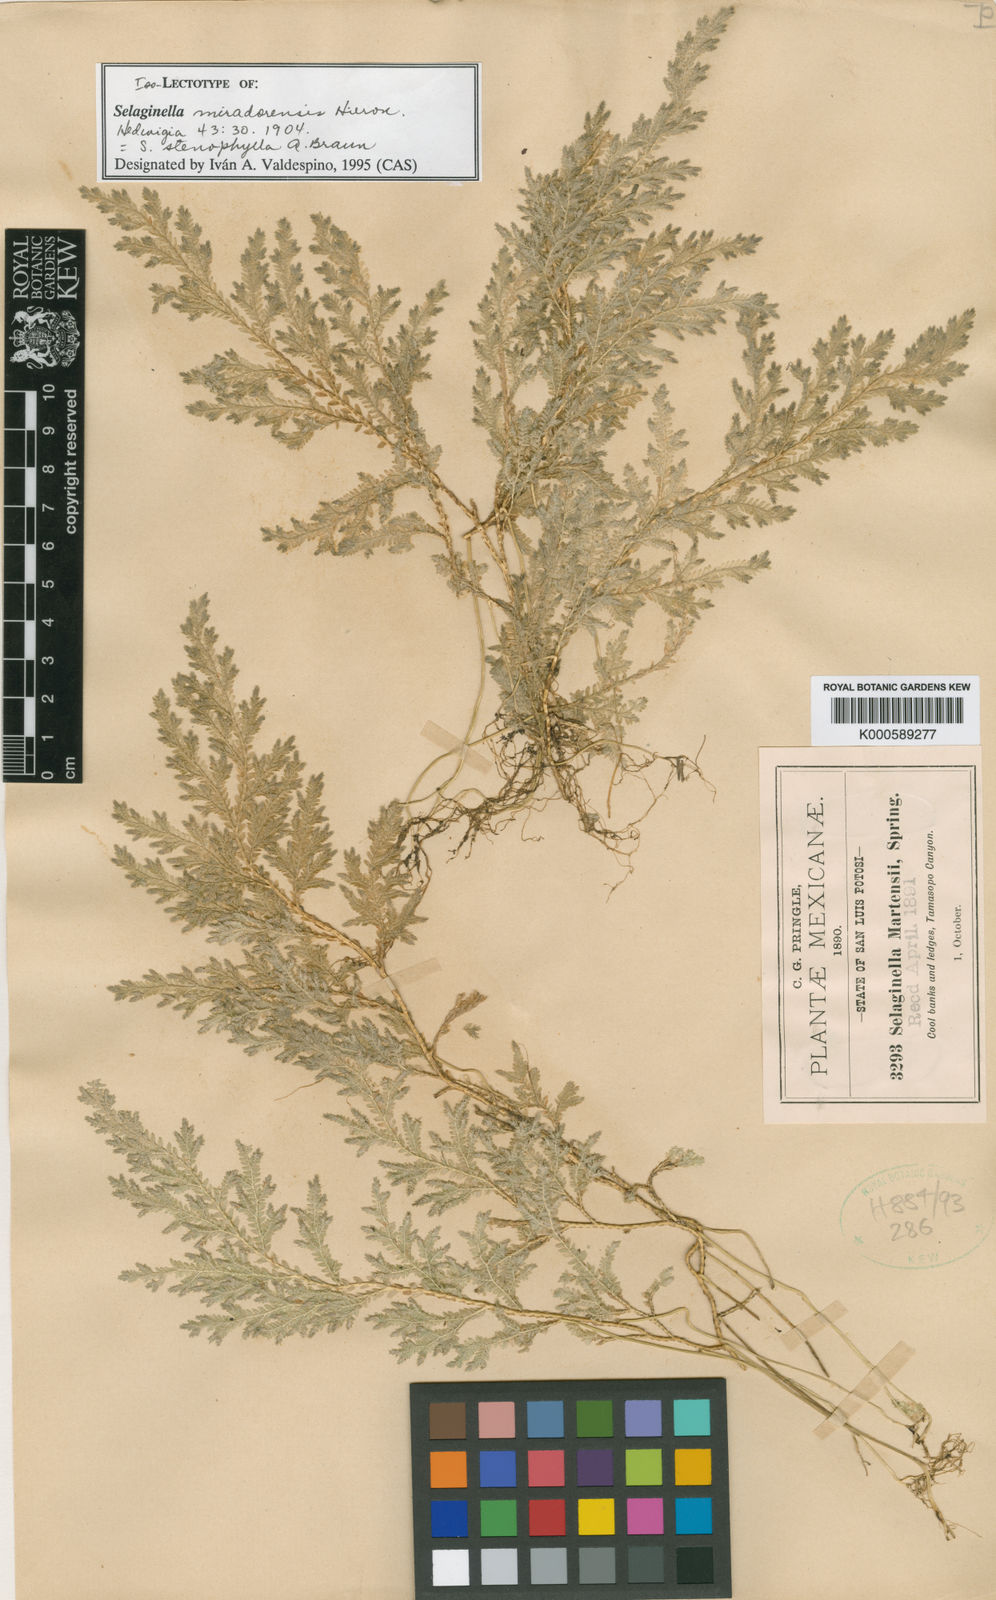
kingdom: Plantae
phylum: Tracheophyta
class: Lycopodiopsida
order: Selaginellales
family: Selaginellaceae
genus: Selaginella
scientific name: Selaginella stenophylla
